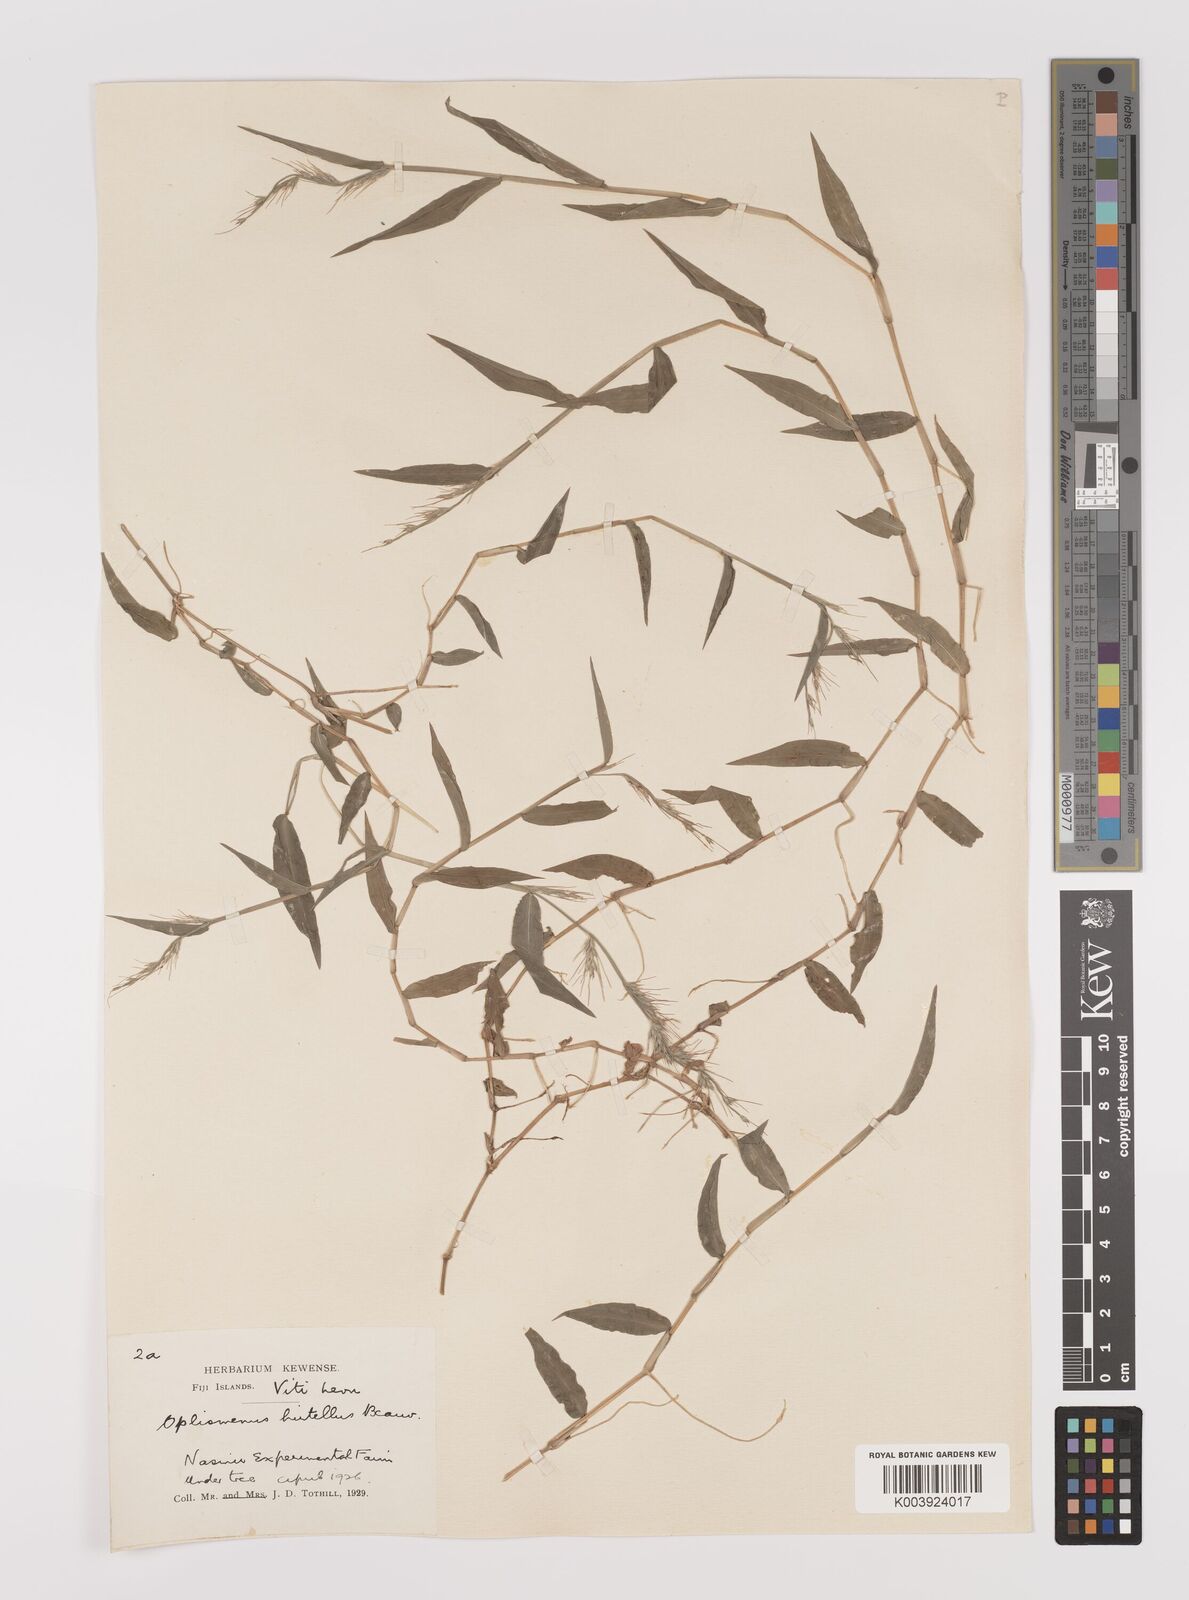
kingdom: Plantae
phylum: Tracheophyta
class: Liliopsida
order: Poales
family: Poaceae
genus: Oplismenus
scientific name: Oplismenus hirtellus
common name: Basketgrass
